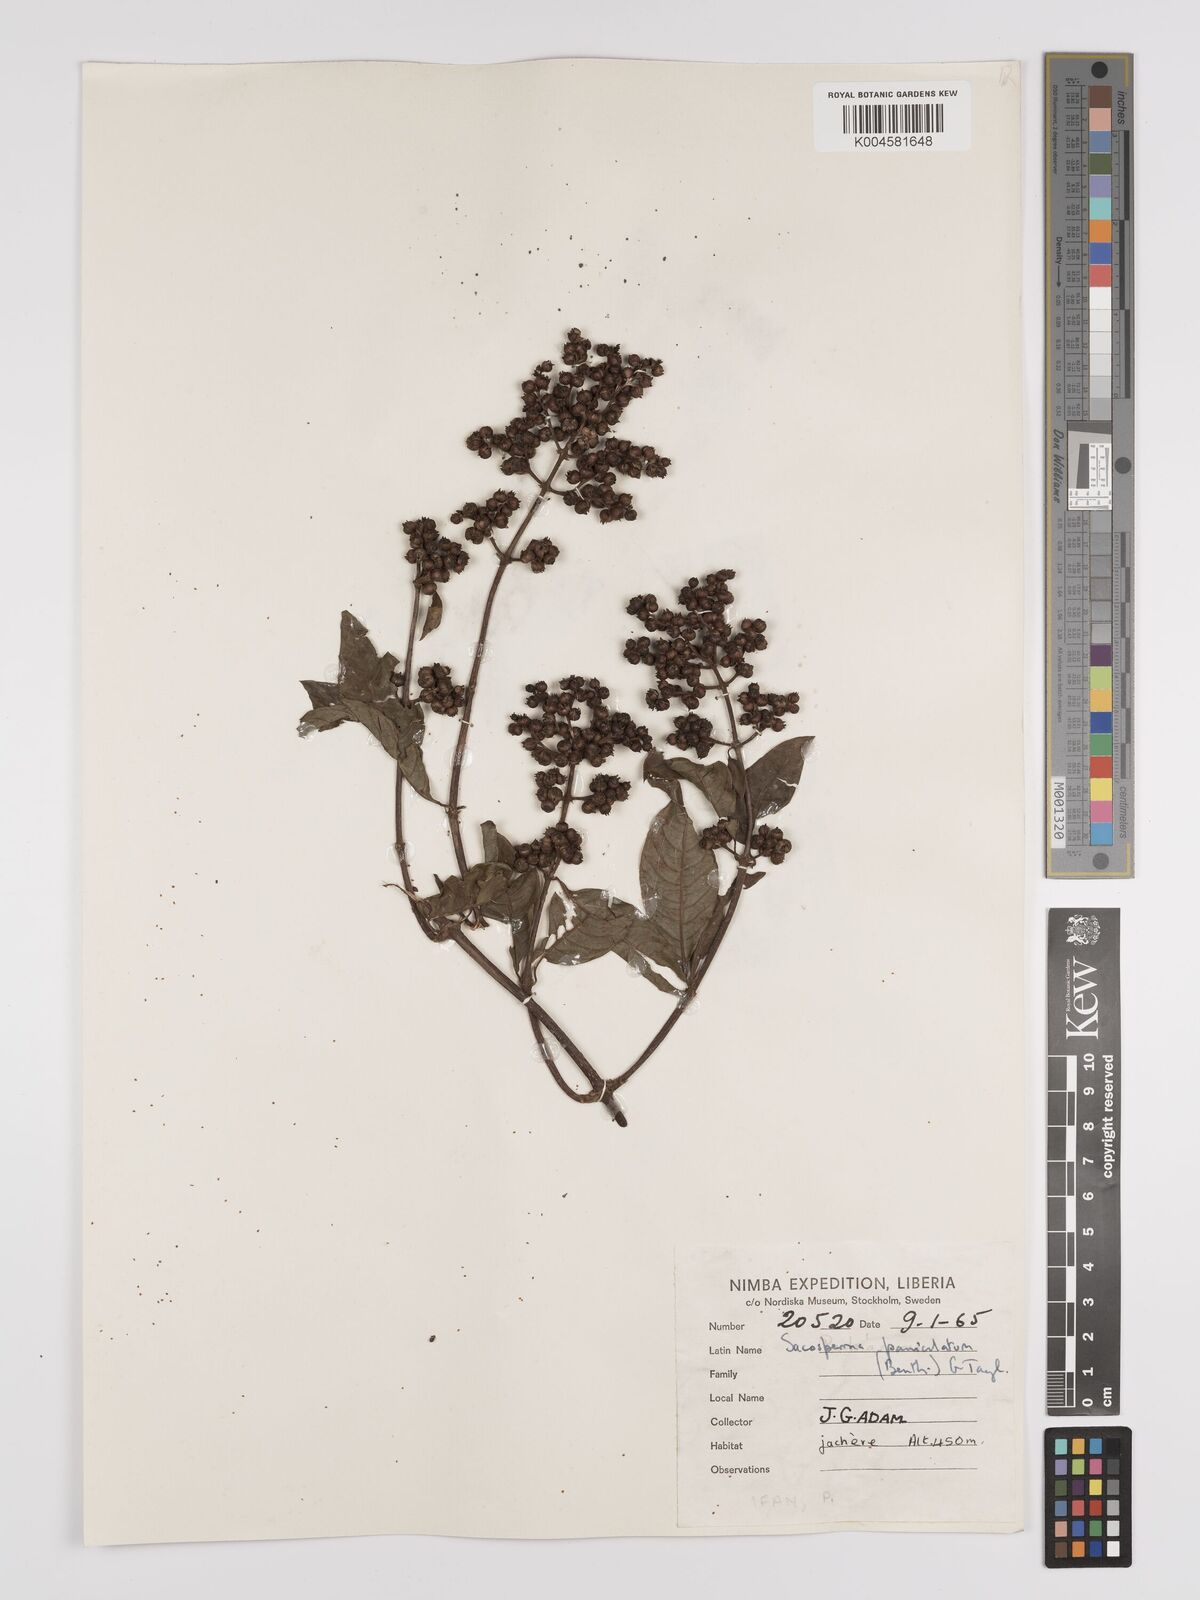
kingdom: Plantae
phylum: Tracheophyta
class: Magnoliopsida
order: Gentianales
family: Rubiaceae
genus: Sacosperma
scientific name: Sacosperma paniculatum
